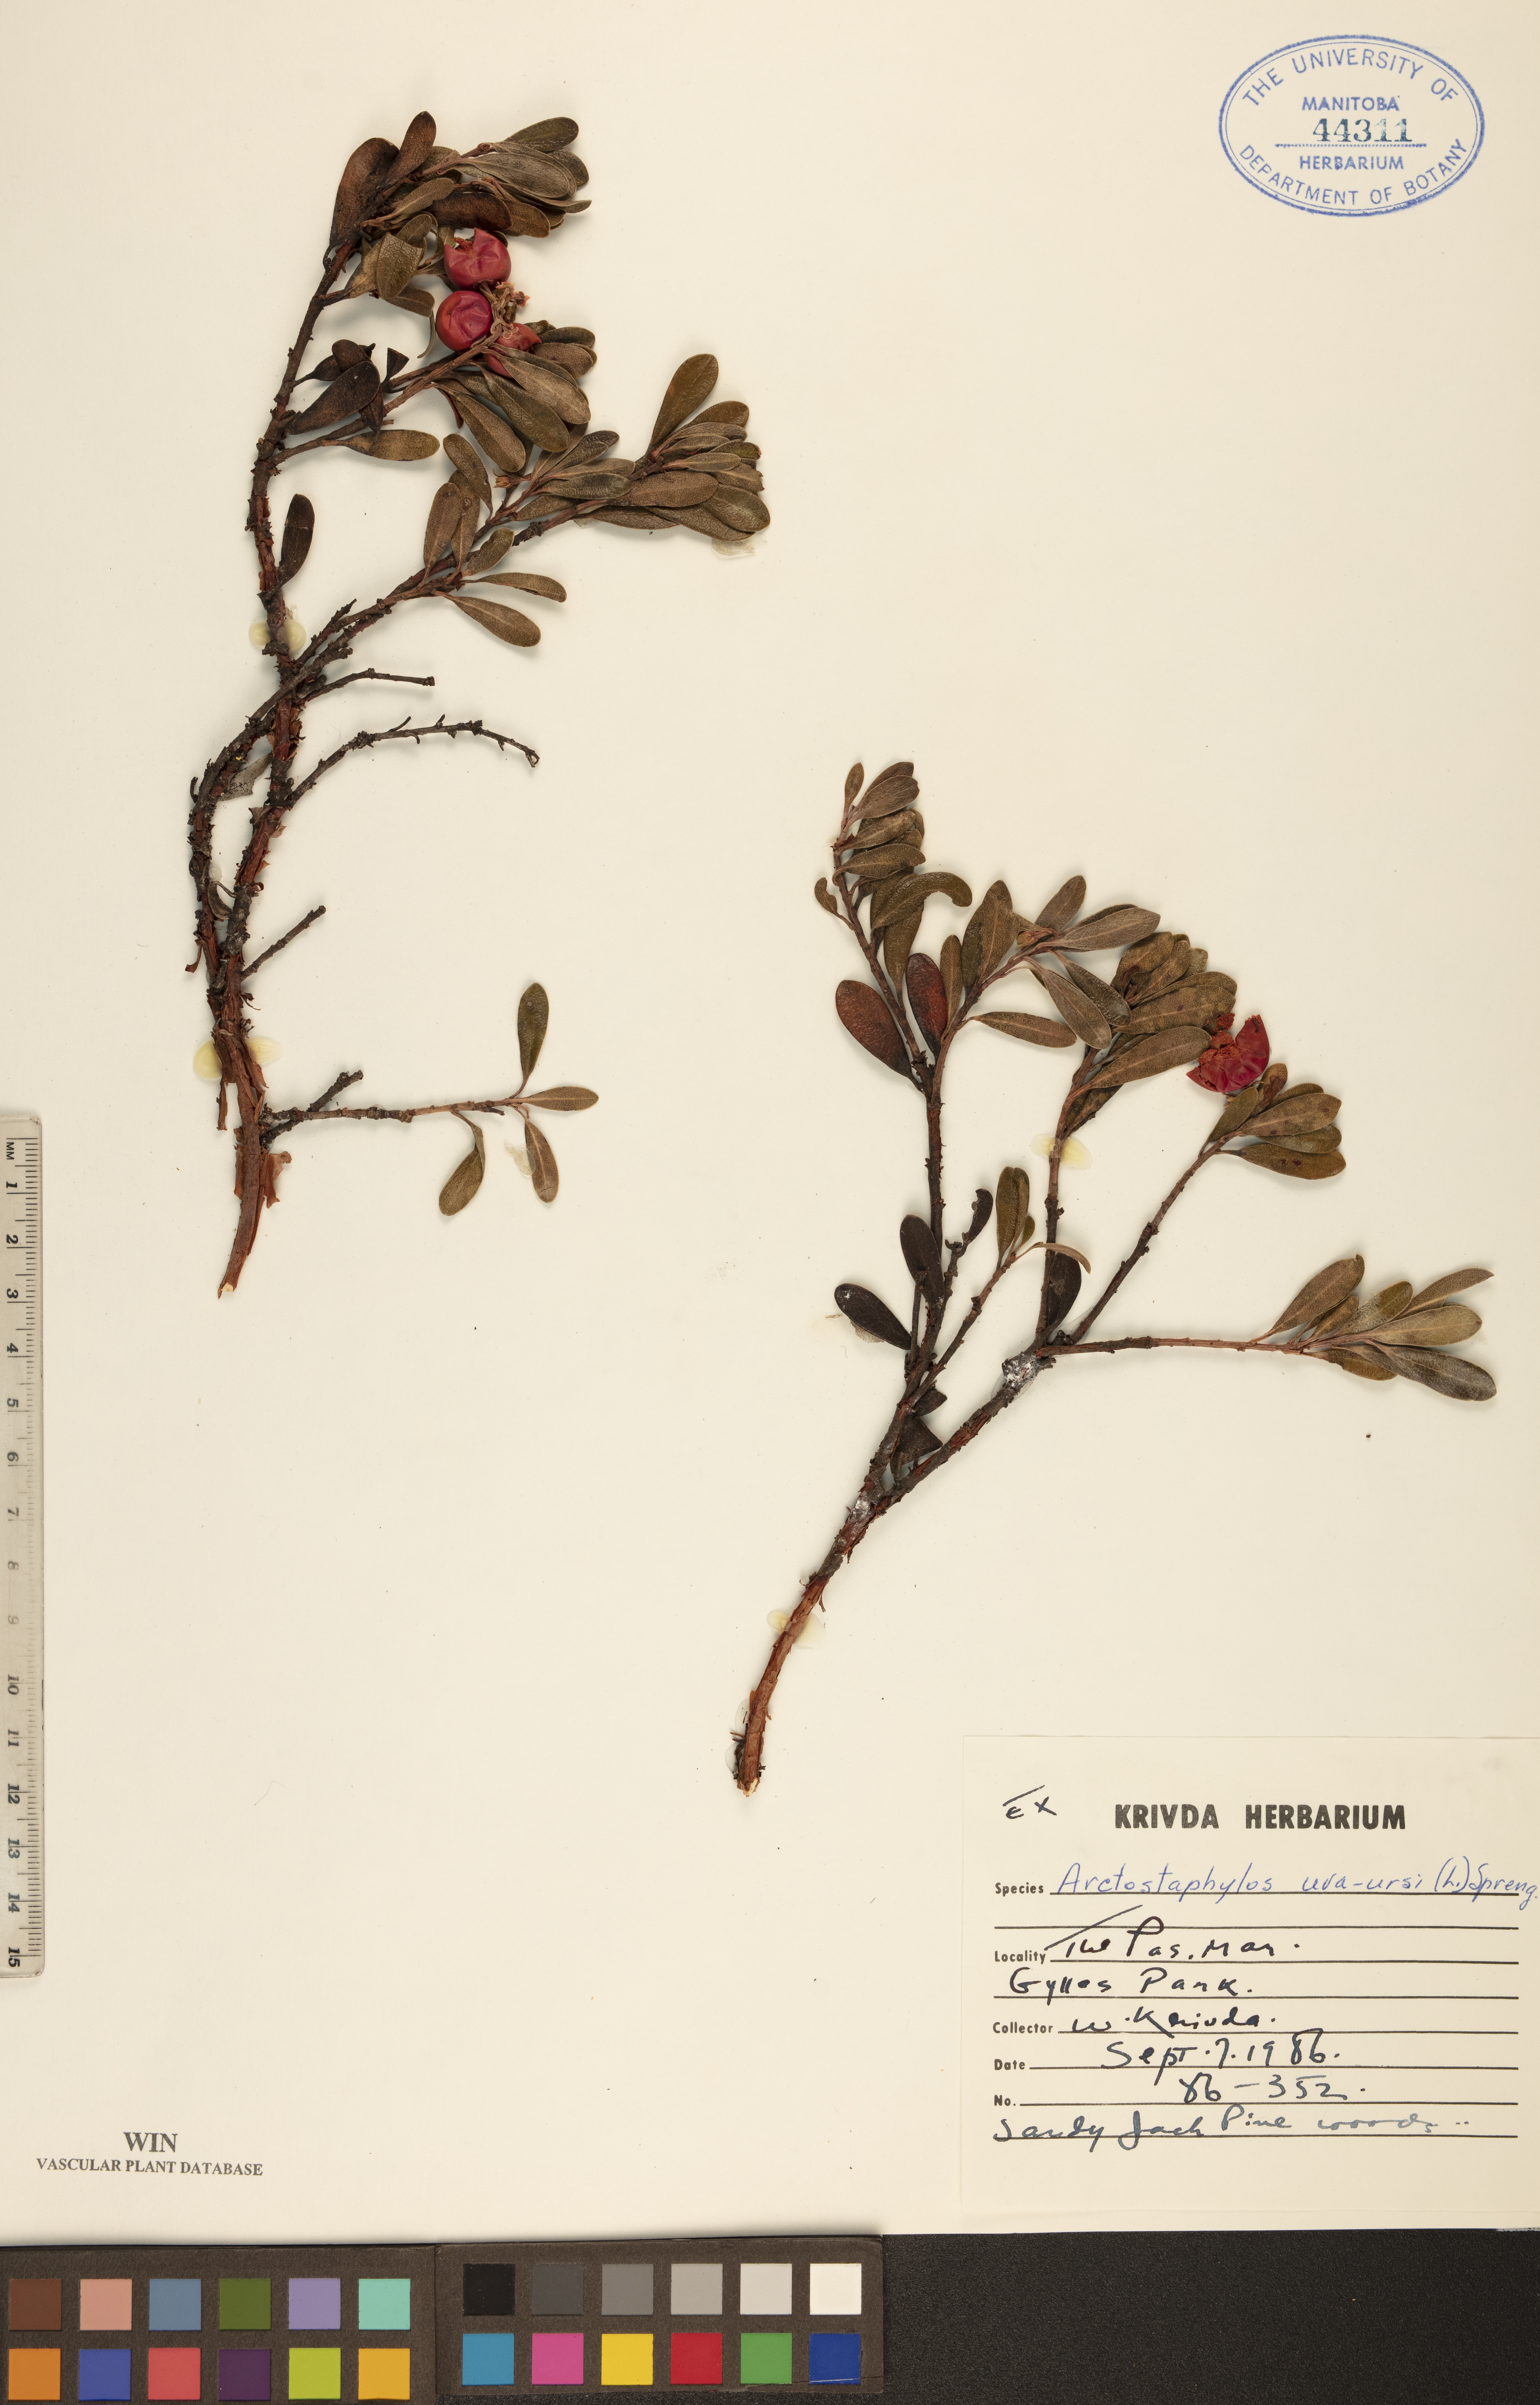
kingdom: Plantae
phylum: Tracheophyta
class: Magnoliopsida
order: Ericales
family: Ericaceae
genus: Arctostaphylos
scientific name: Arctostaphylos uva-ursi
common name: Bearberry
